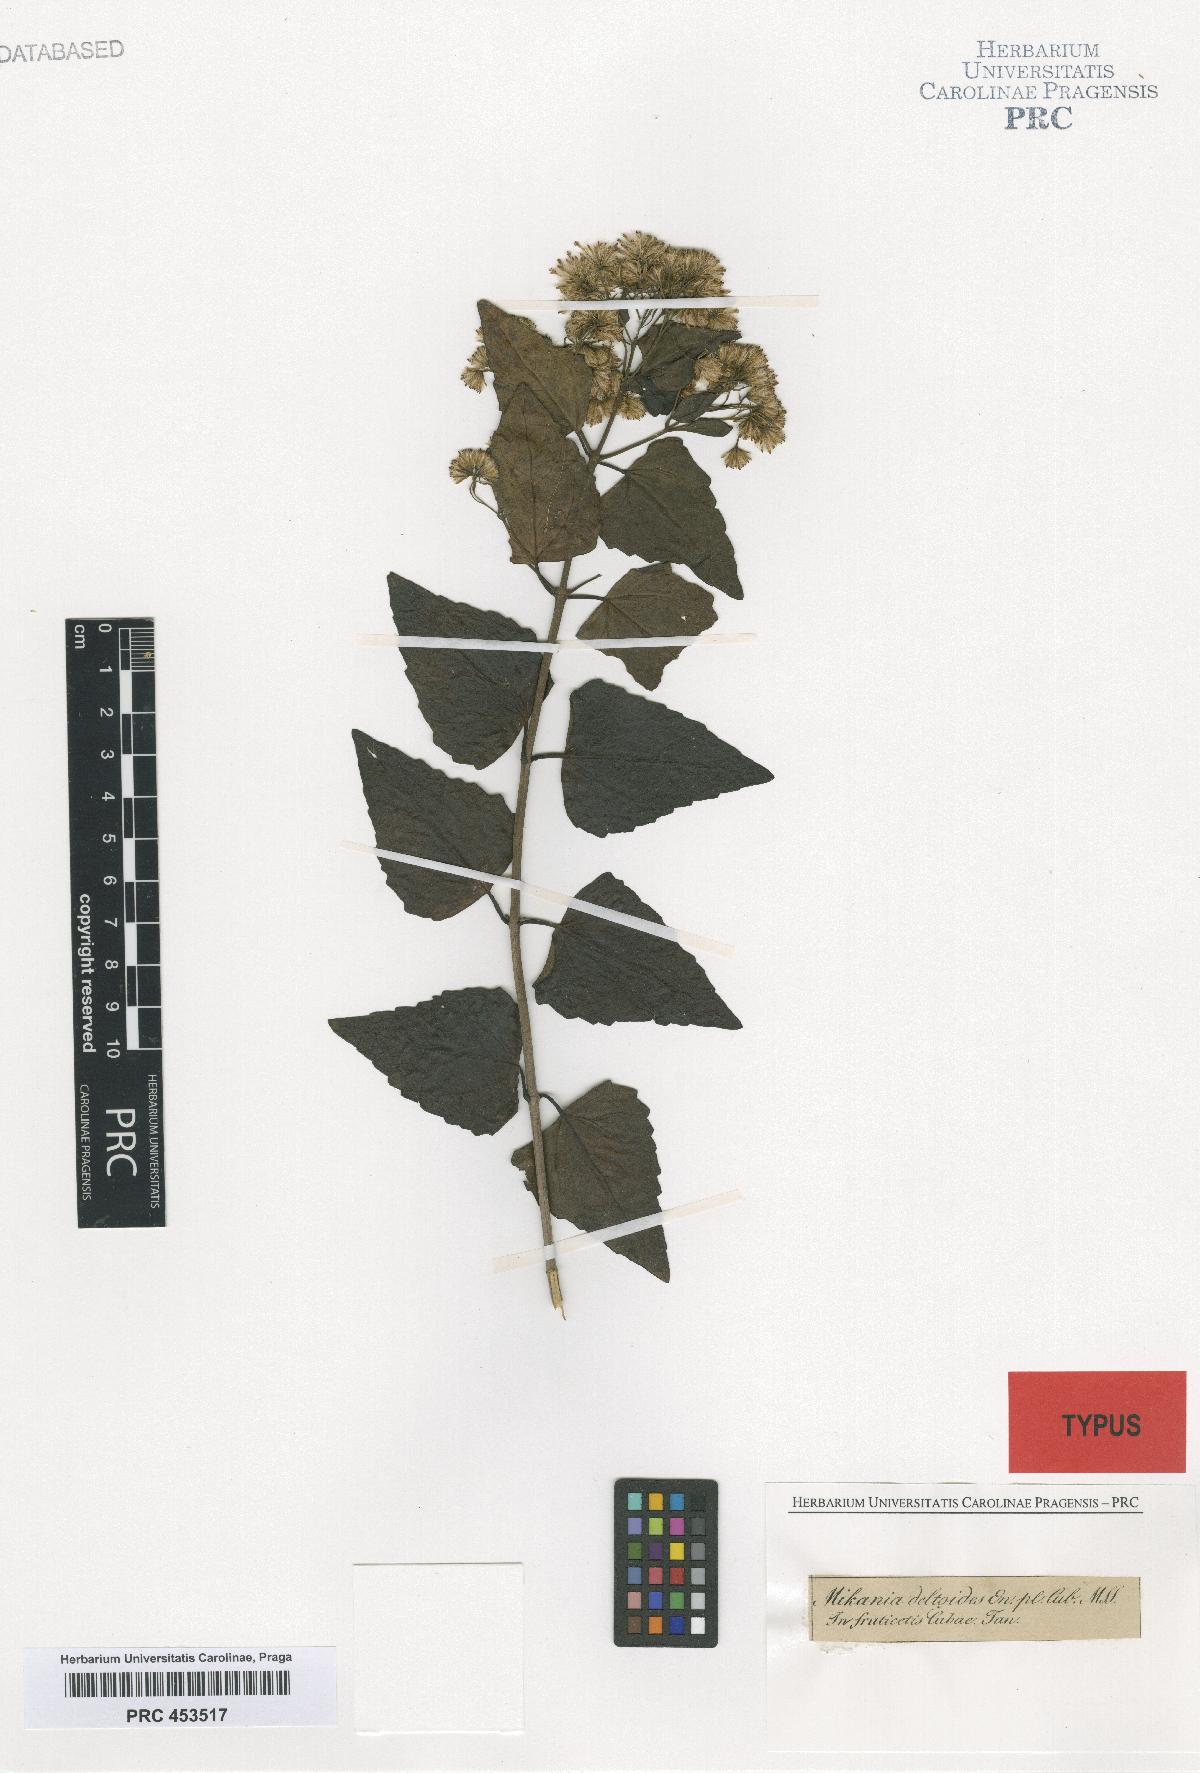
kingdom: Plantae
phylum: Tracheophyta
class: Magnoliopsida
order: Asterales
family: Asteraceae
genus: Mikania
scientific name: Mikania micrantha
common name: Mile-a-minute
